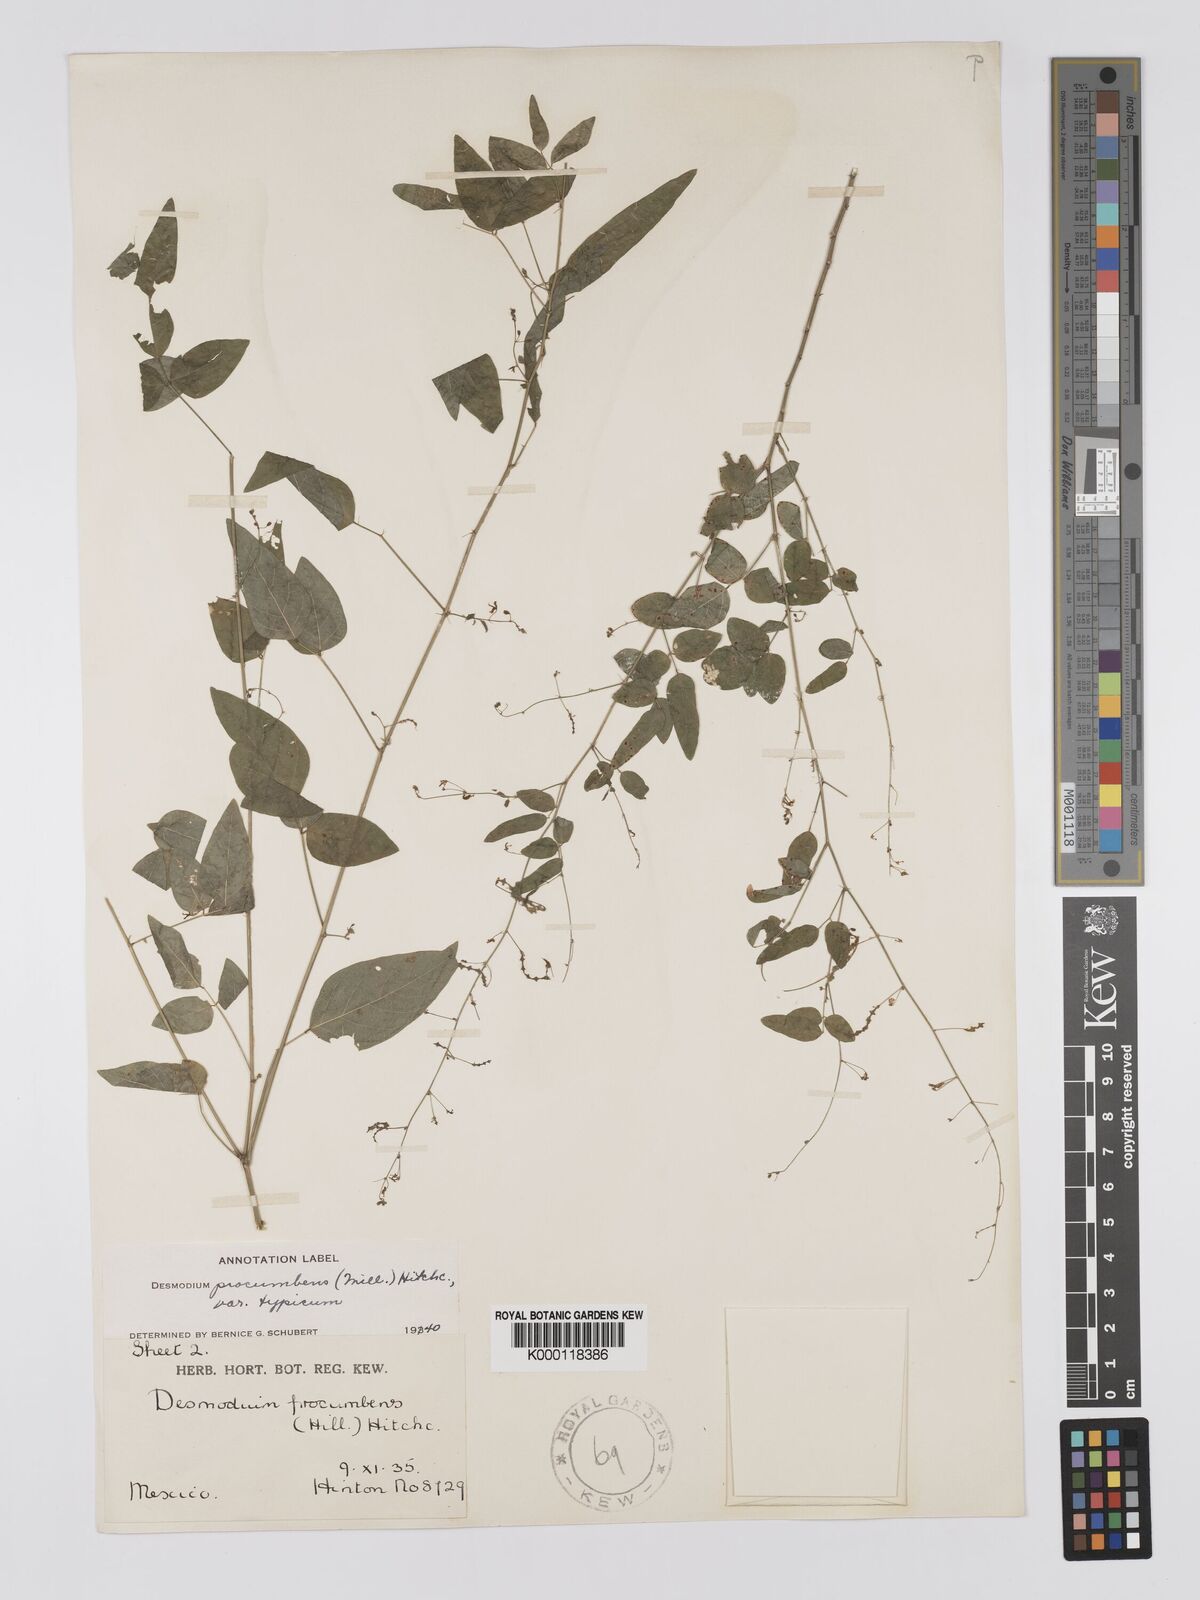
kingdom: Plantae
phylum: Tracheophyta
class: Magnoliopsida
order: Fabales
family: Fabaceae
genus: Desmodium
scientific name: Desmodium procumbens
